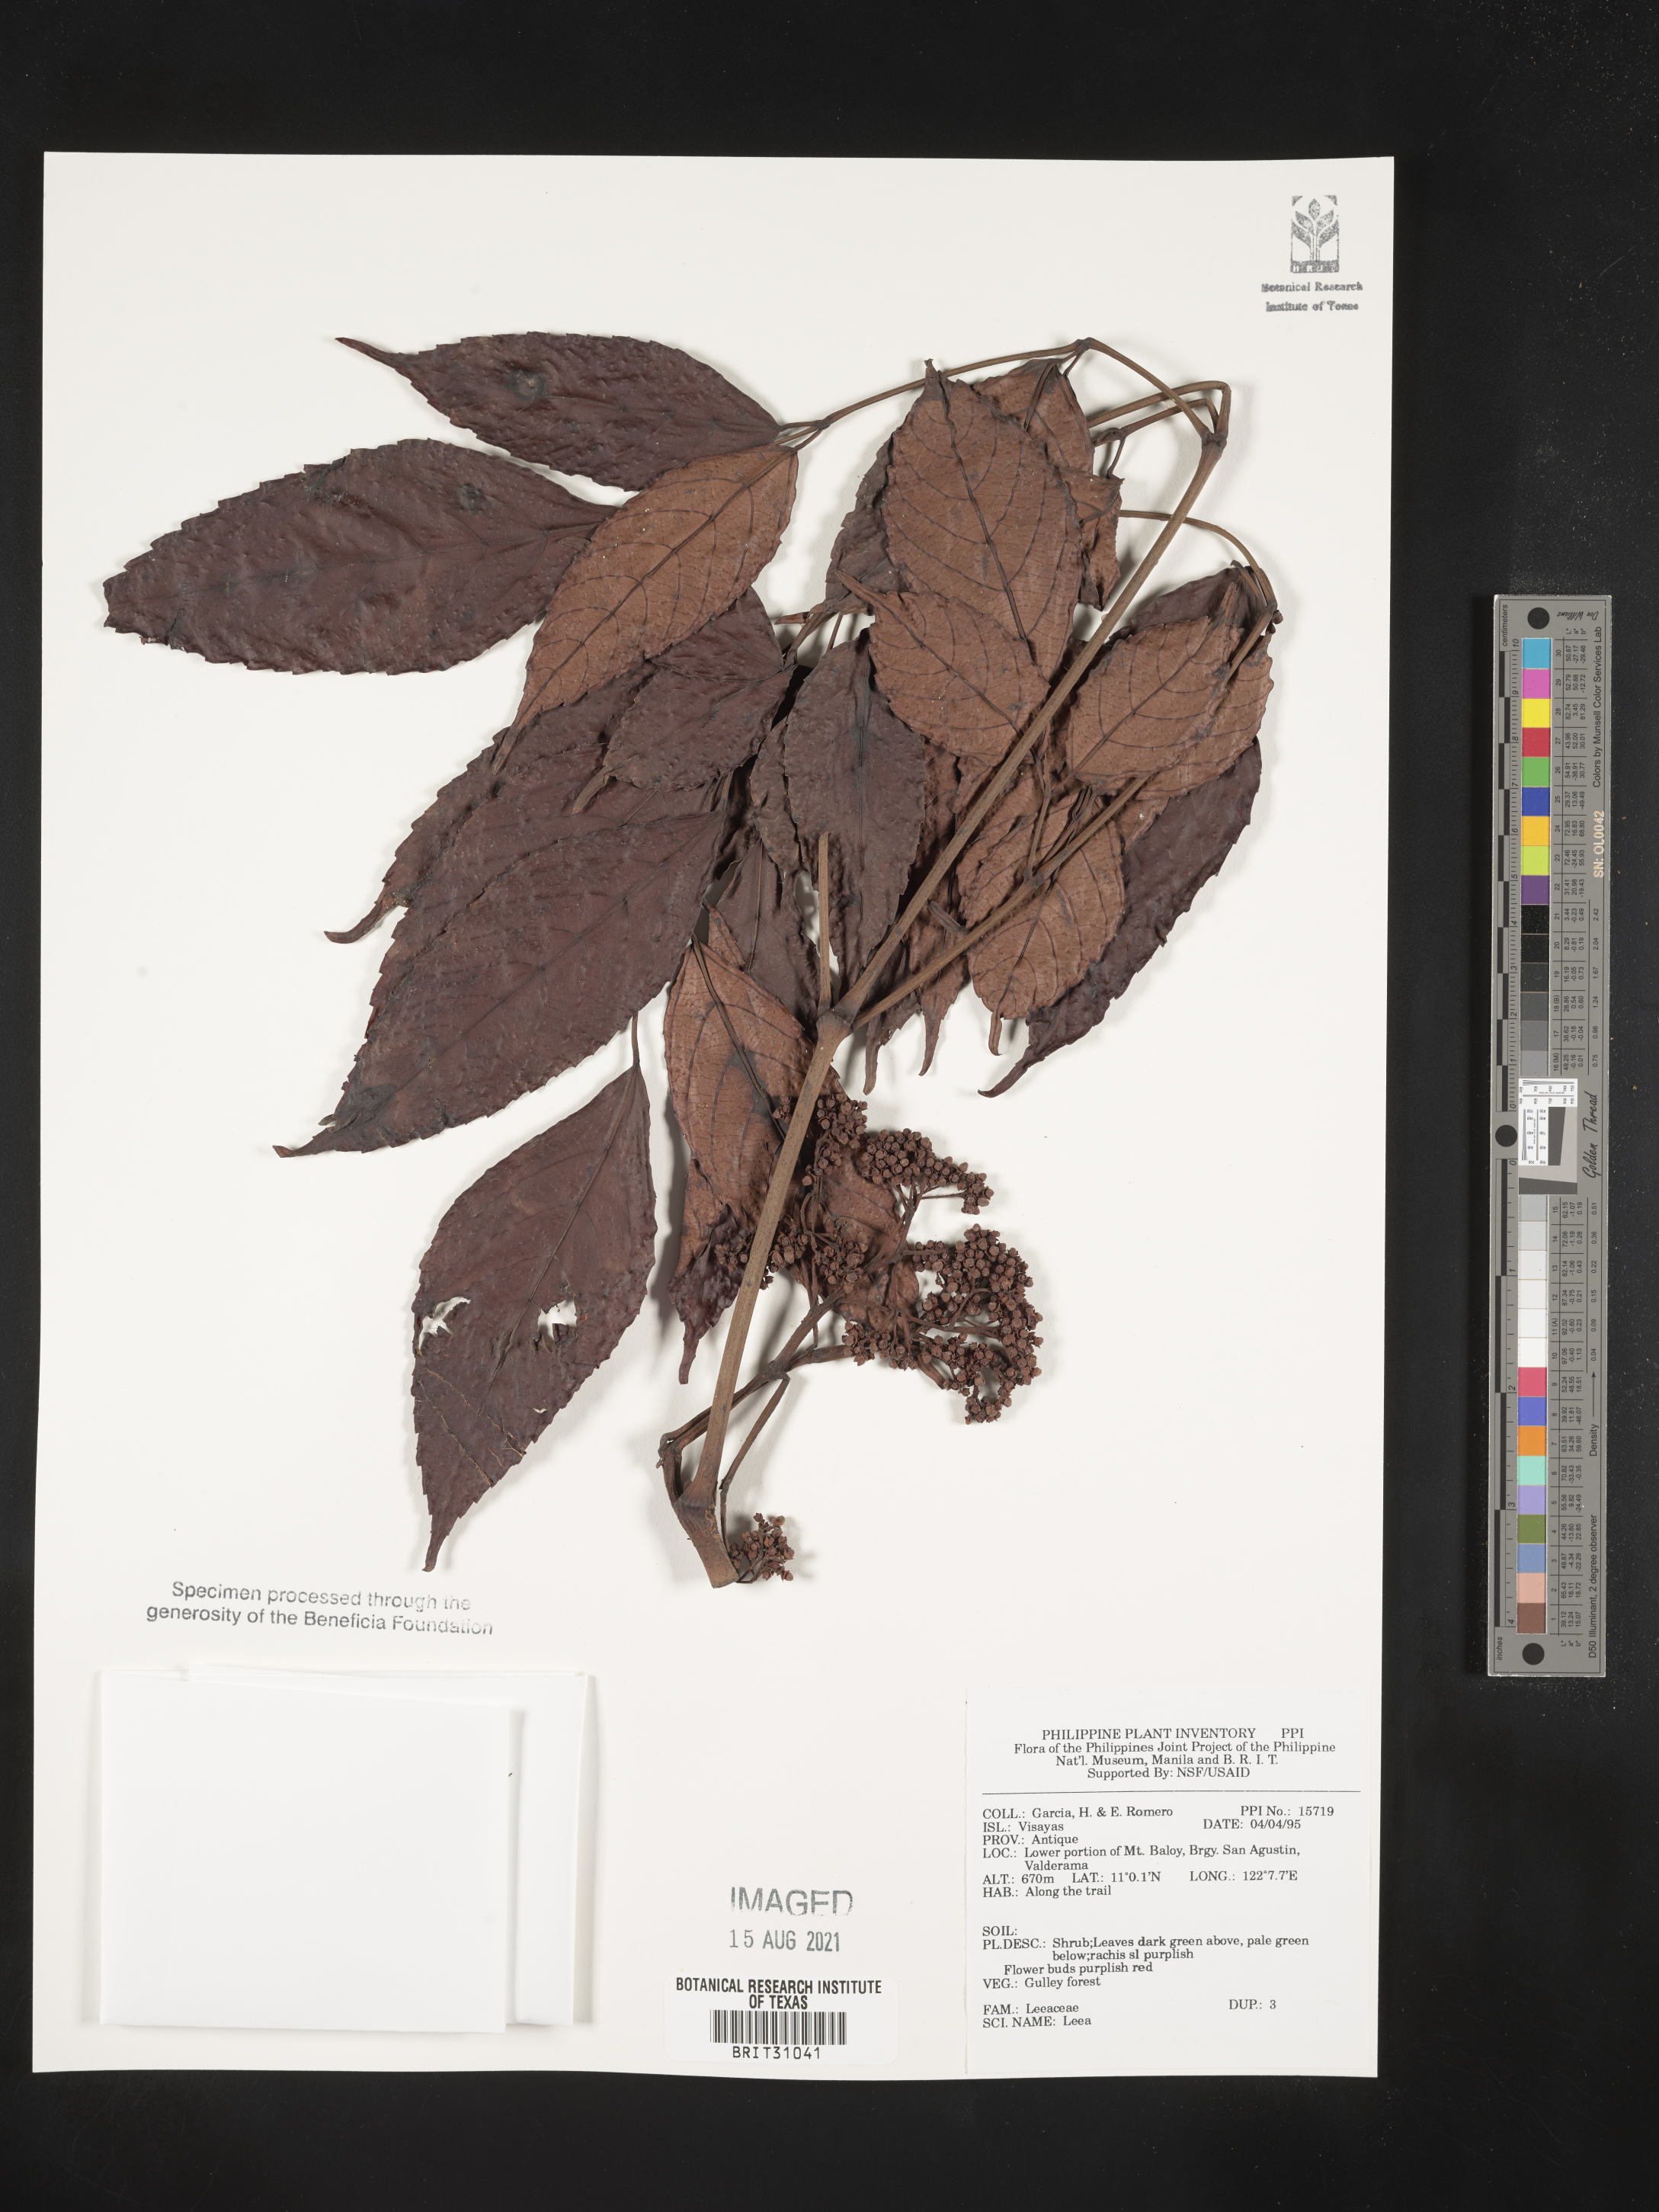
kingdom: Plantae
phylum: Tracheophyta
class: Magnoliopsida
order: Vitales
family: Vitaceae
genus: Leea
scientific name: Leea
